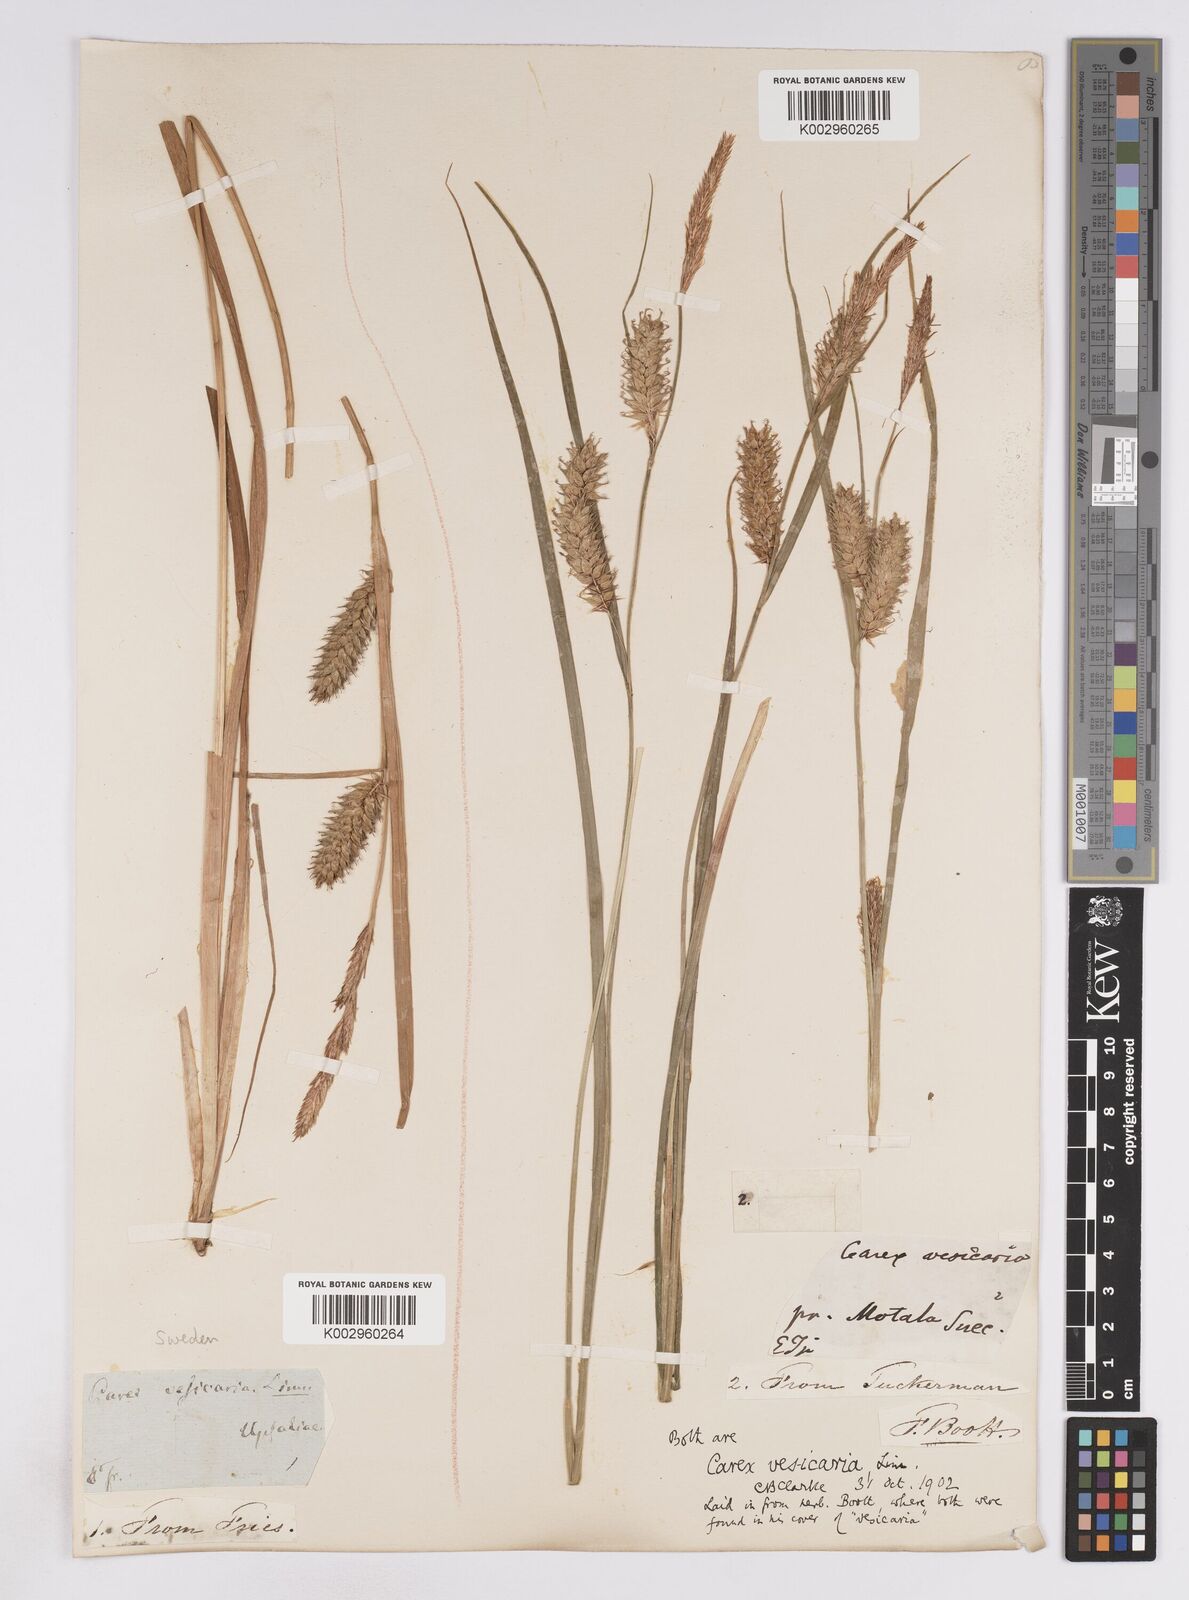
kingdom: Plantae
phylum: Tracheophyta
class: Liliopsida
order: Poales
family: Cyperaceae
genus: Carex
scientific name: Carex vesicaria
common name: Bladder-sedge
